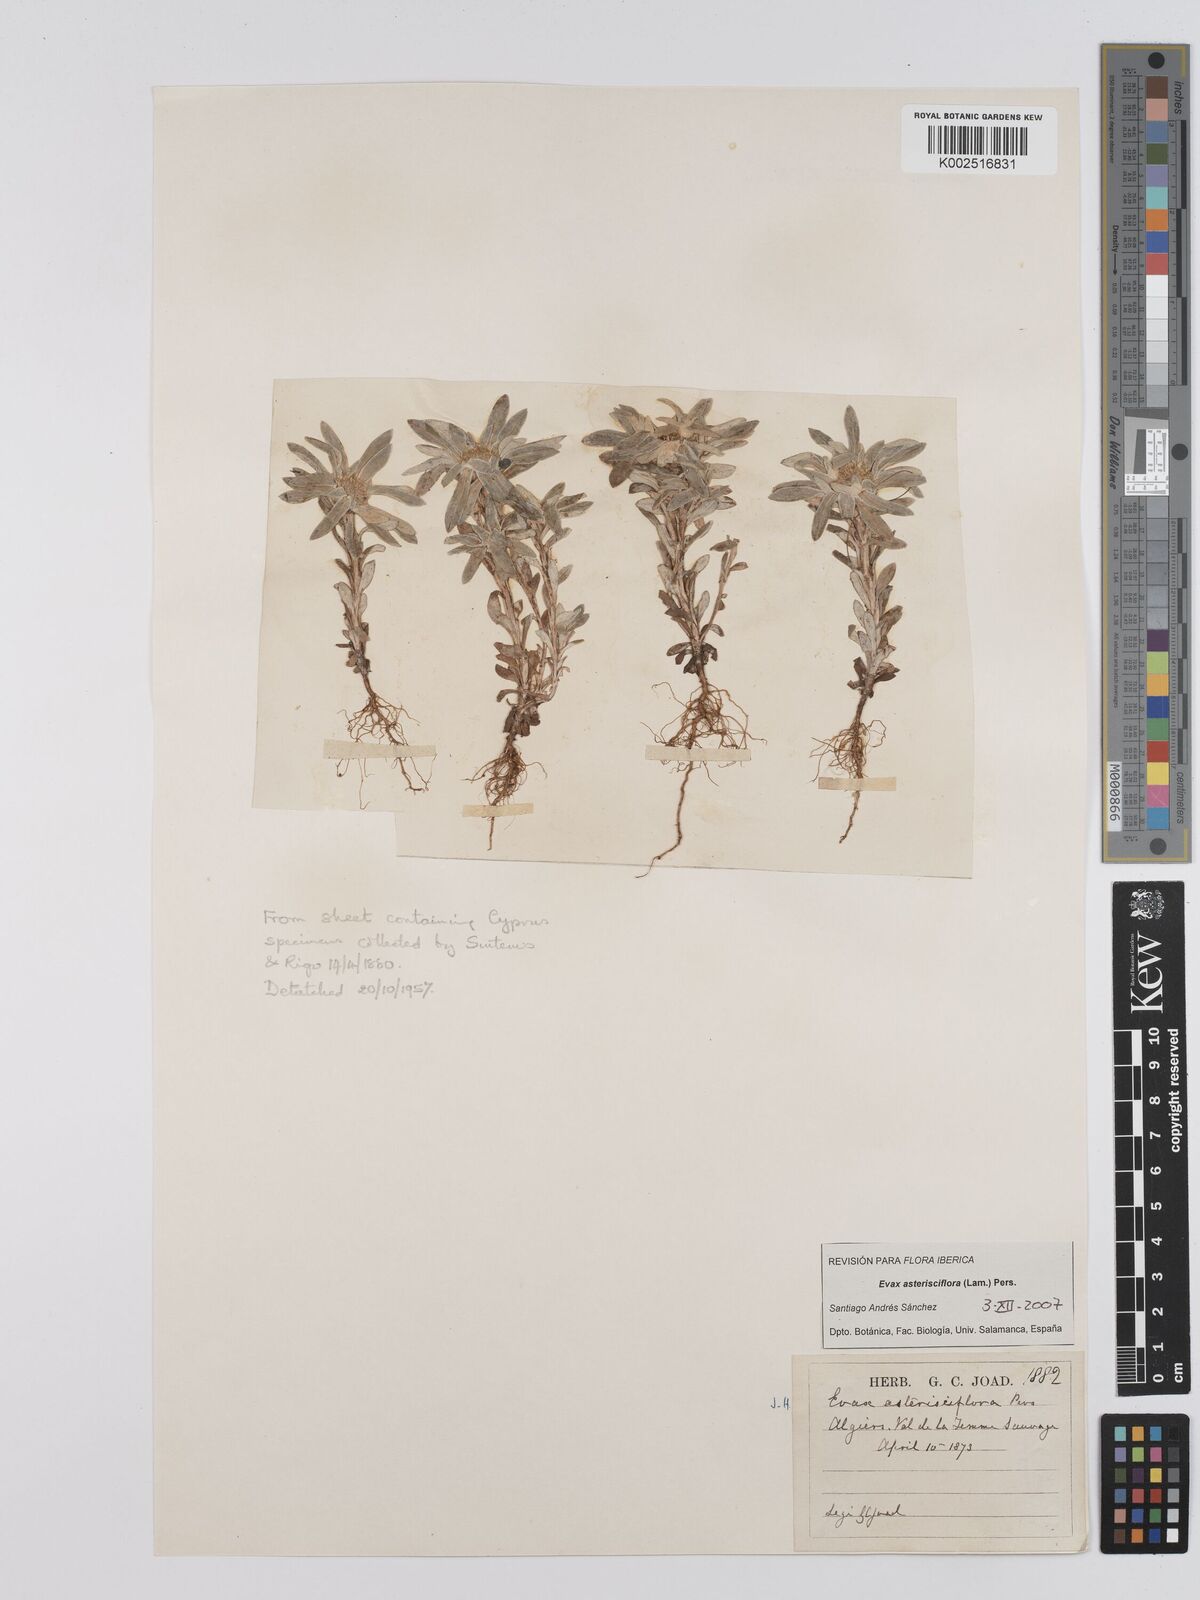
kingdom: Plantae
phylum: Tracheophyta
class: Magnoliopsida
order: Asterales
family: Asteraceae
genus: Filago
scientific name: Filago
